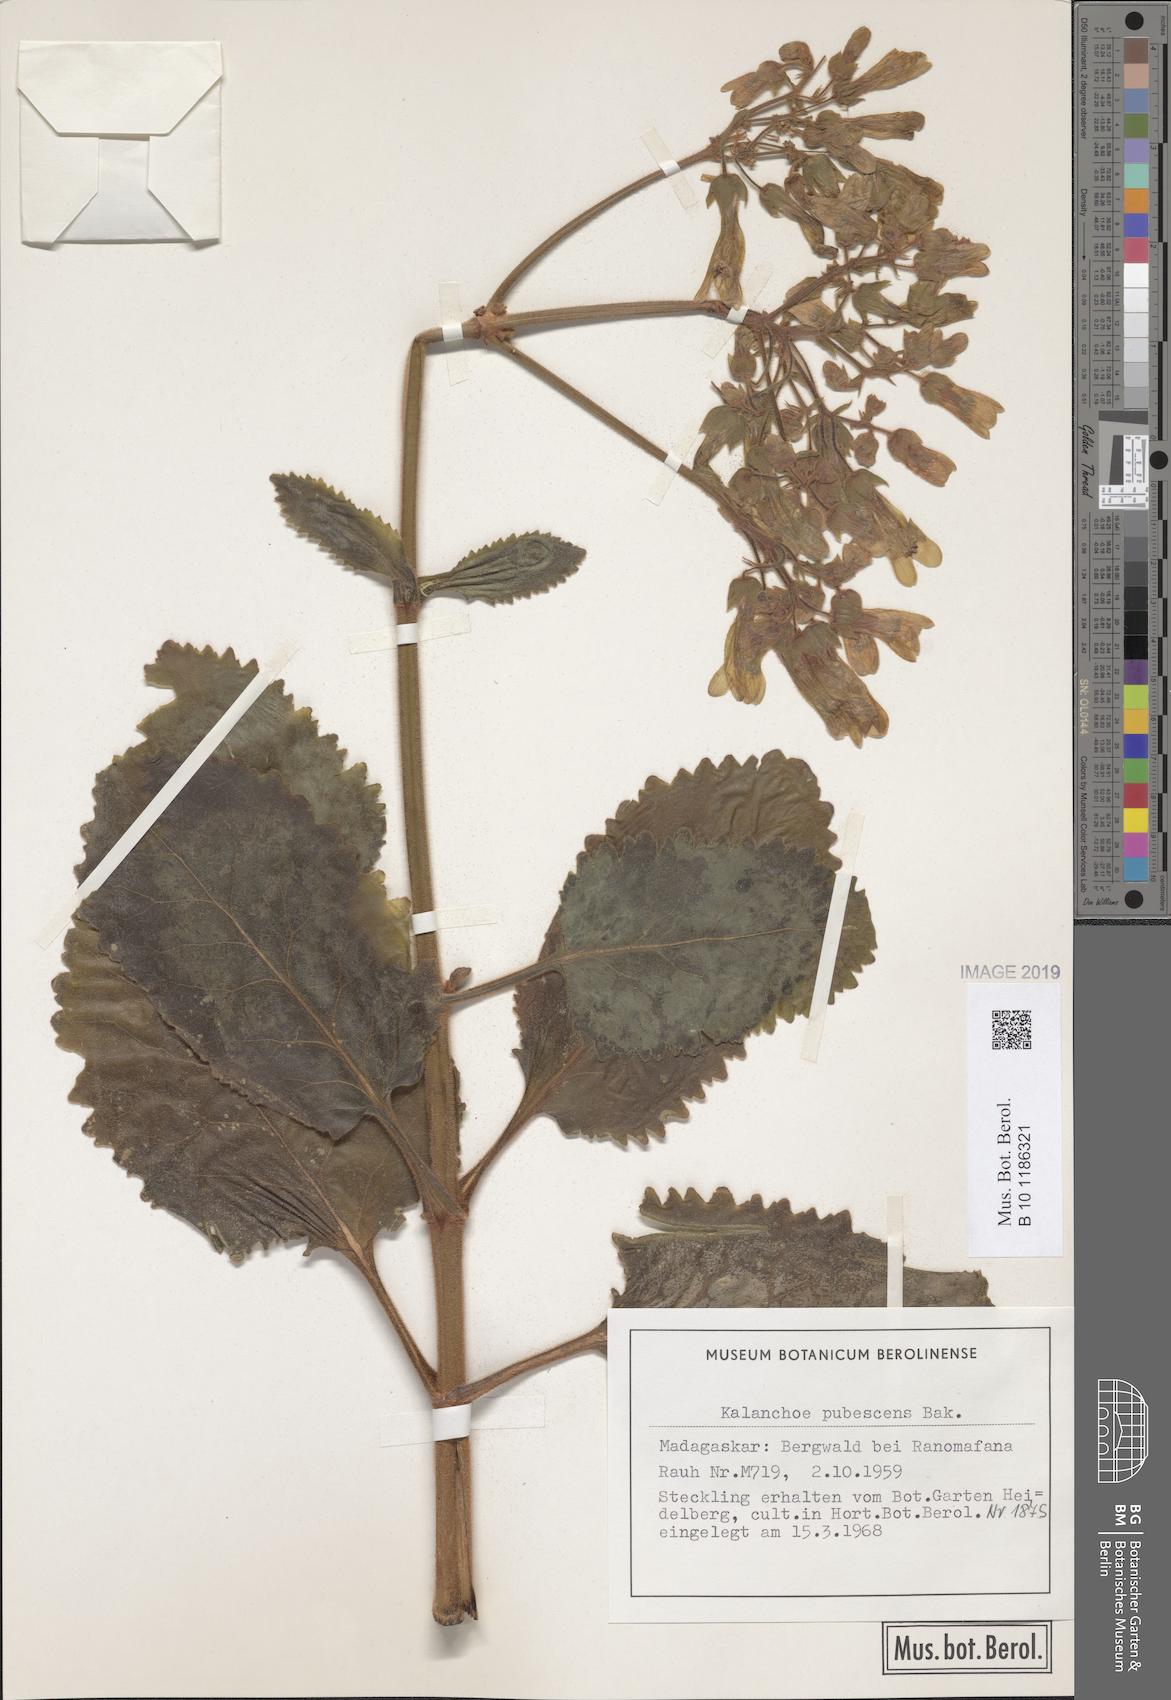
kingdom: Plantae
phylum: Tracheophyta
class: Magnoliopsida
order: Saxifragales
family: Crassulaceae
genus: Kalanchoe
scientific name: Kalanchoe pubescens
